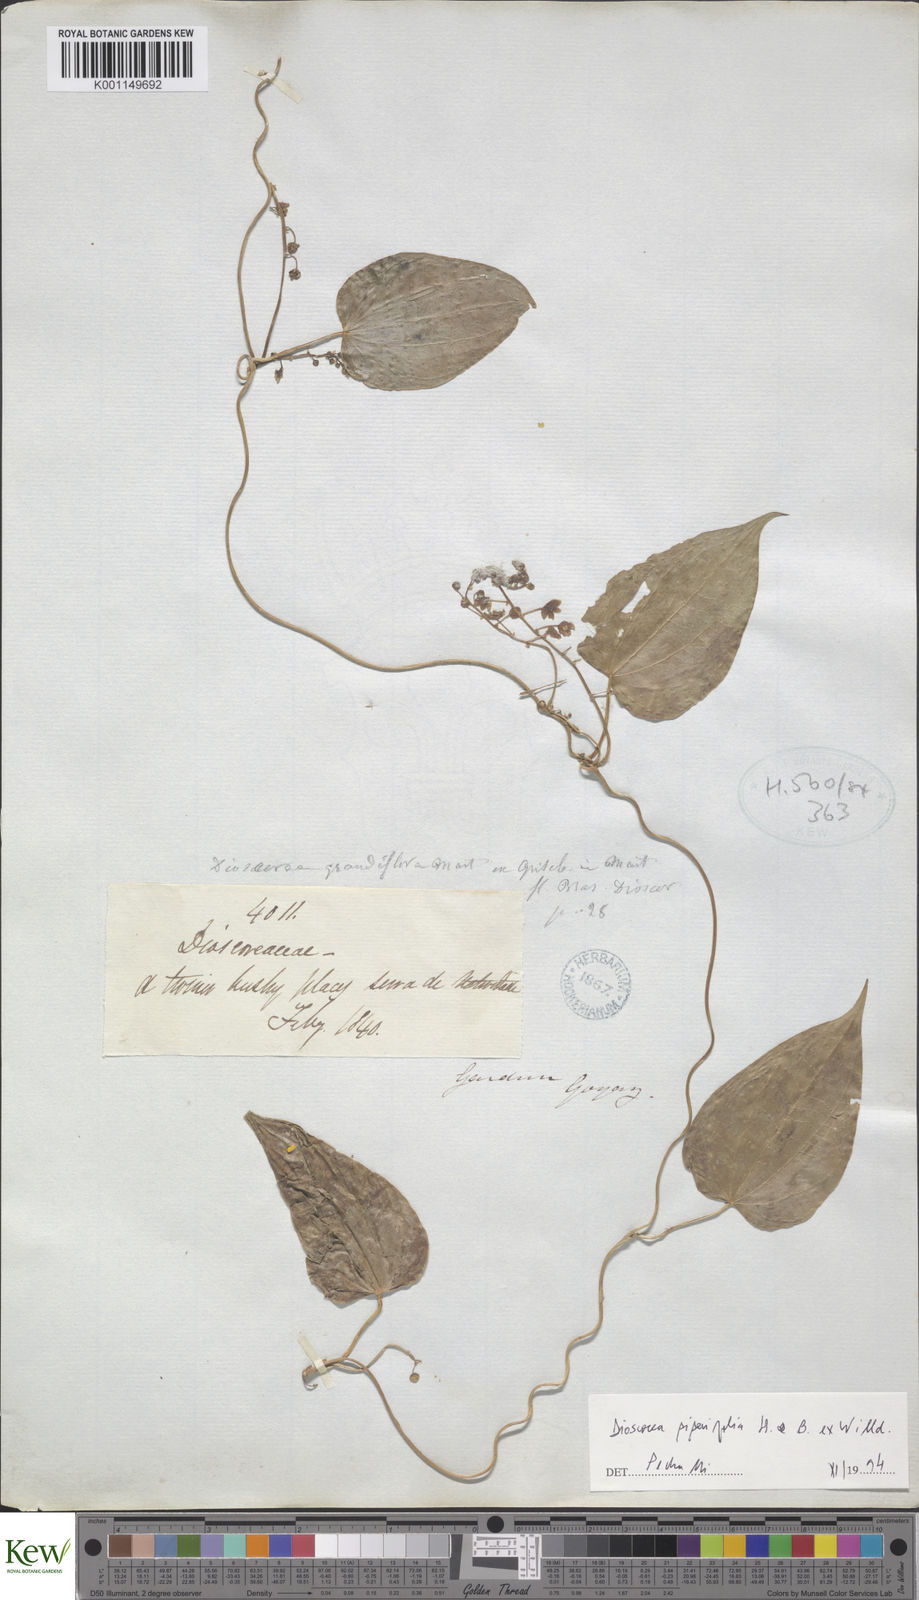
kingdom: Plantae
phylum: Tracheophyta
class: Liliopsida
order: Dioscoreales
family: Dioscoreaceae
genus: Dioscorea
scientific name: Dioscorea grandiflora
